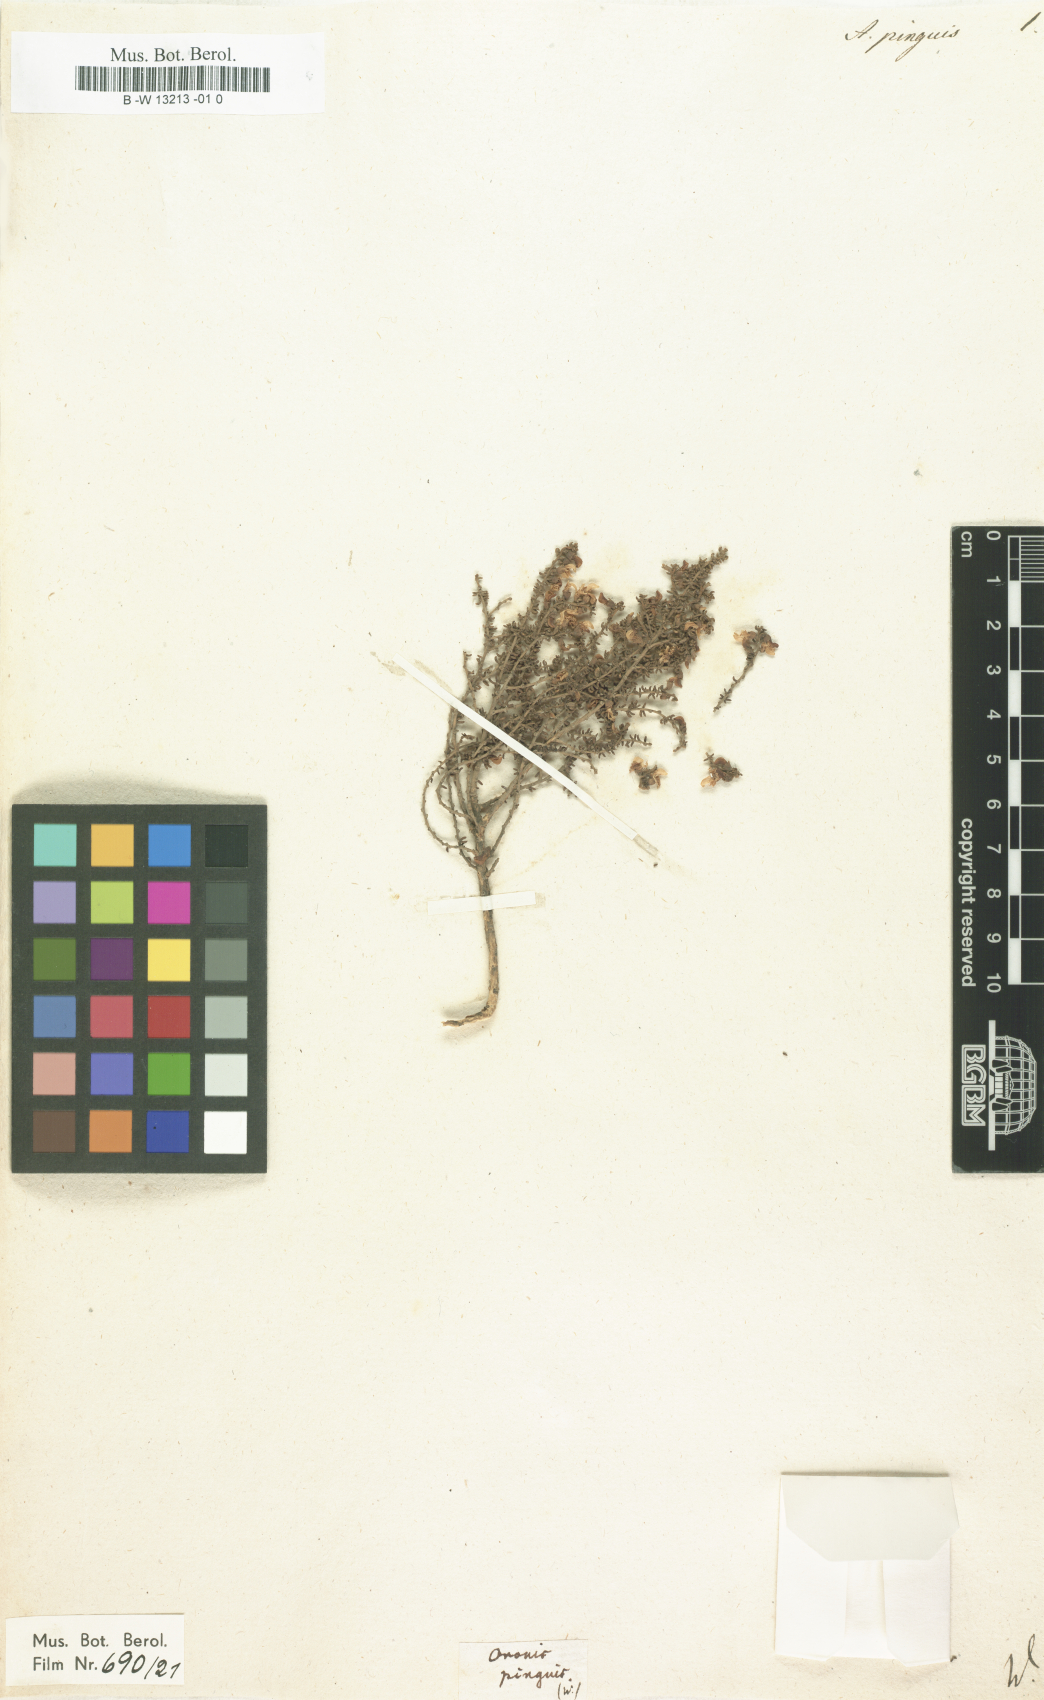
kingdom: Plantae
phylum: Tracheophyta
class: Magnoliopsida
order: Fabales
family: Fabaceae
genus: Aspalathus
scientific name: Aspalathus pinguis
